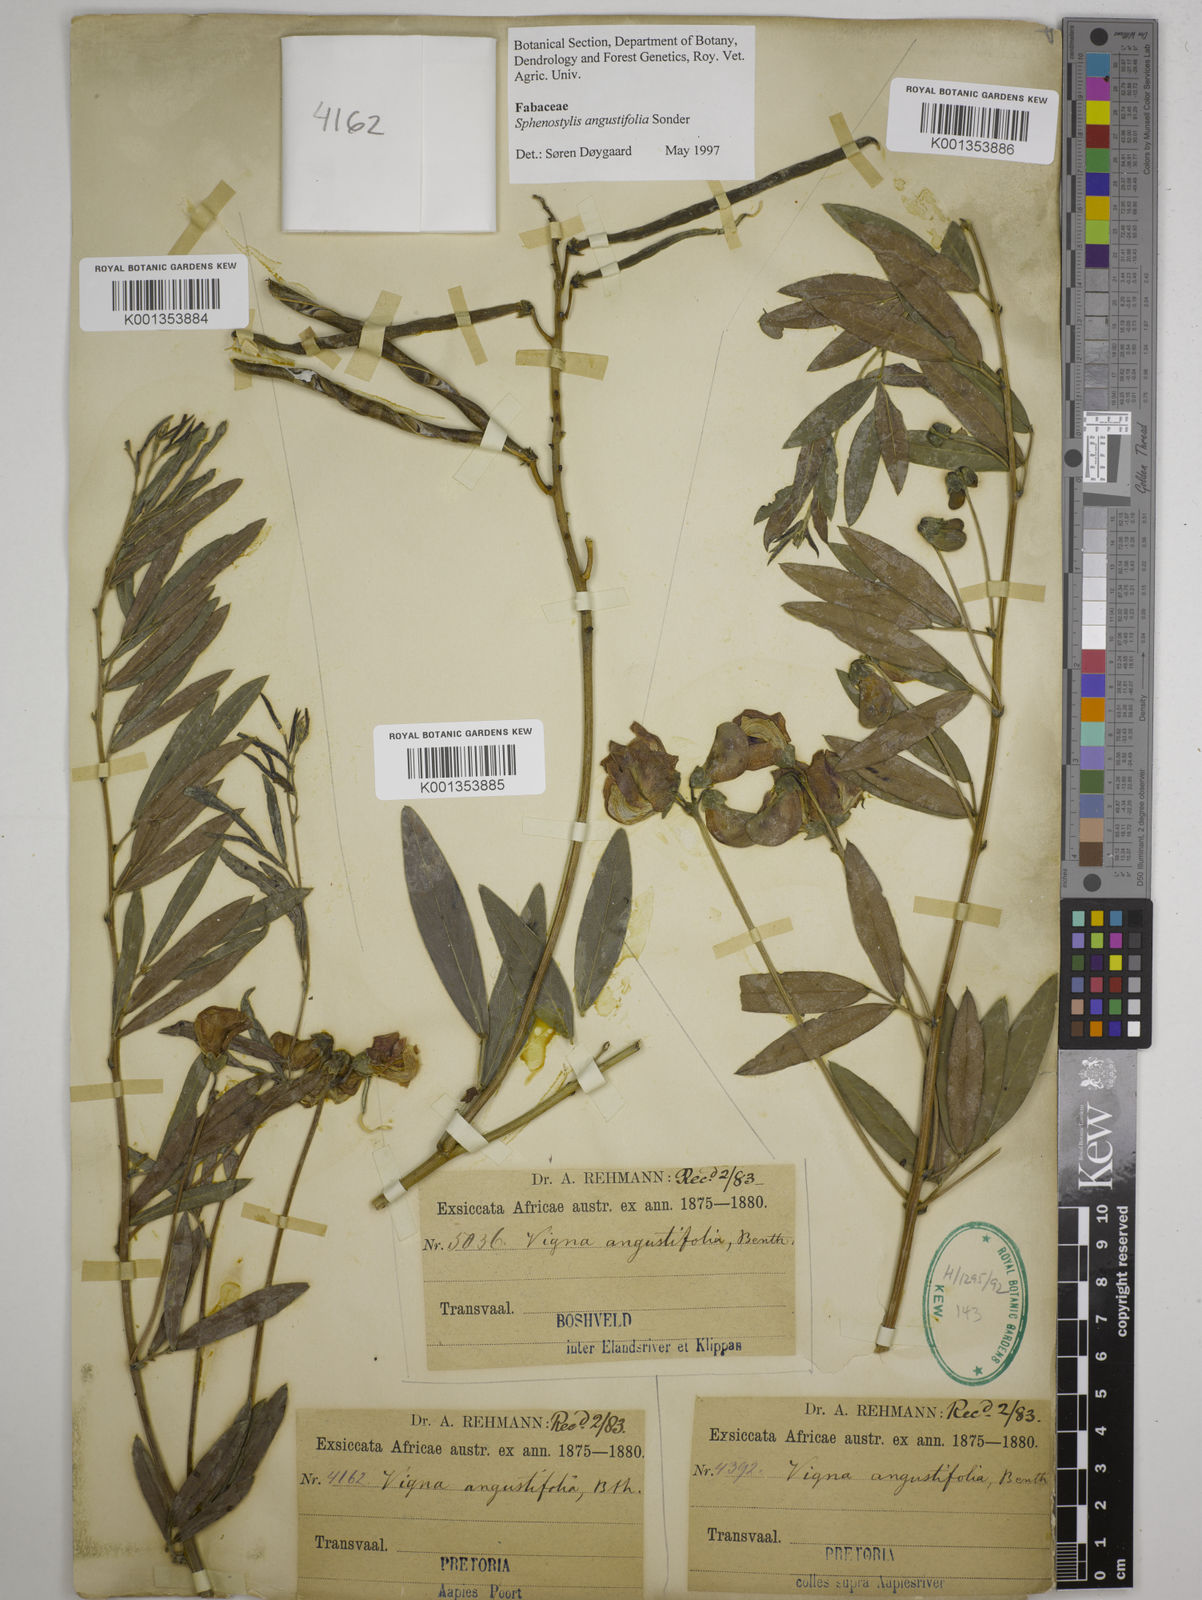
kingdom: Plantae
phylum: Tracheophyta
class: Magnoliopsida
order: Fabales
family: Fabaceae
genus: Sphenostylis
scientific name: Sphenostylis angustifolia
